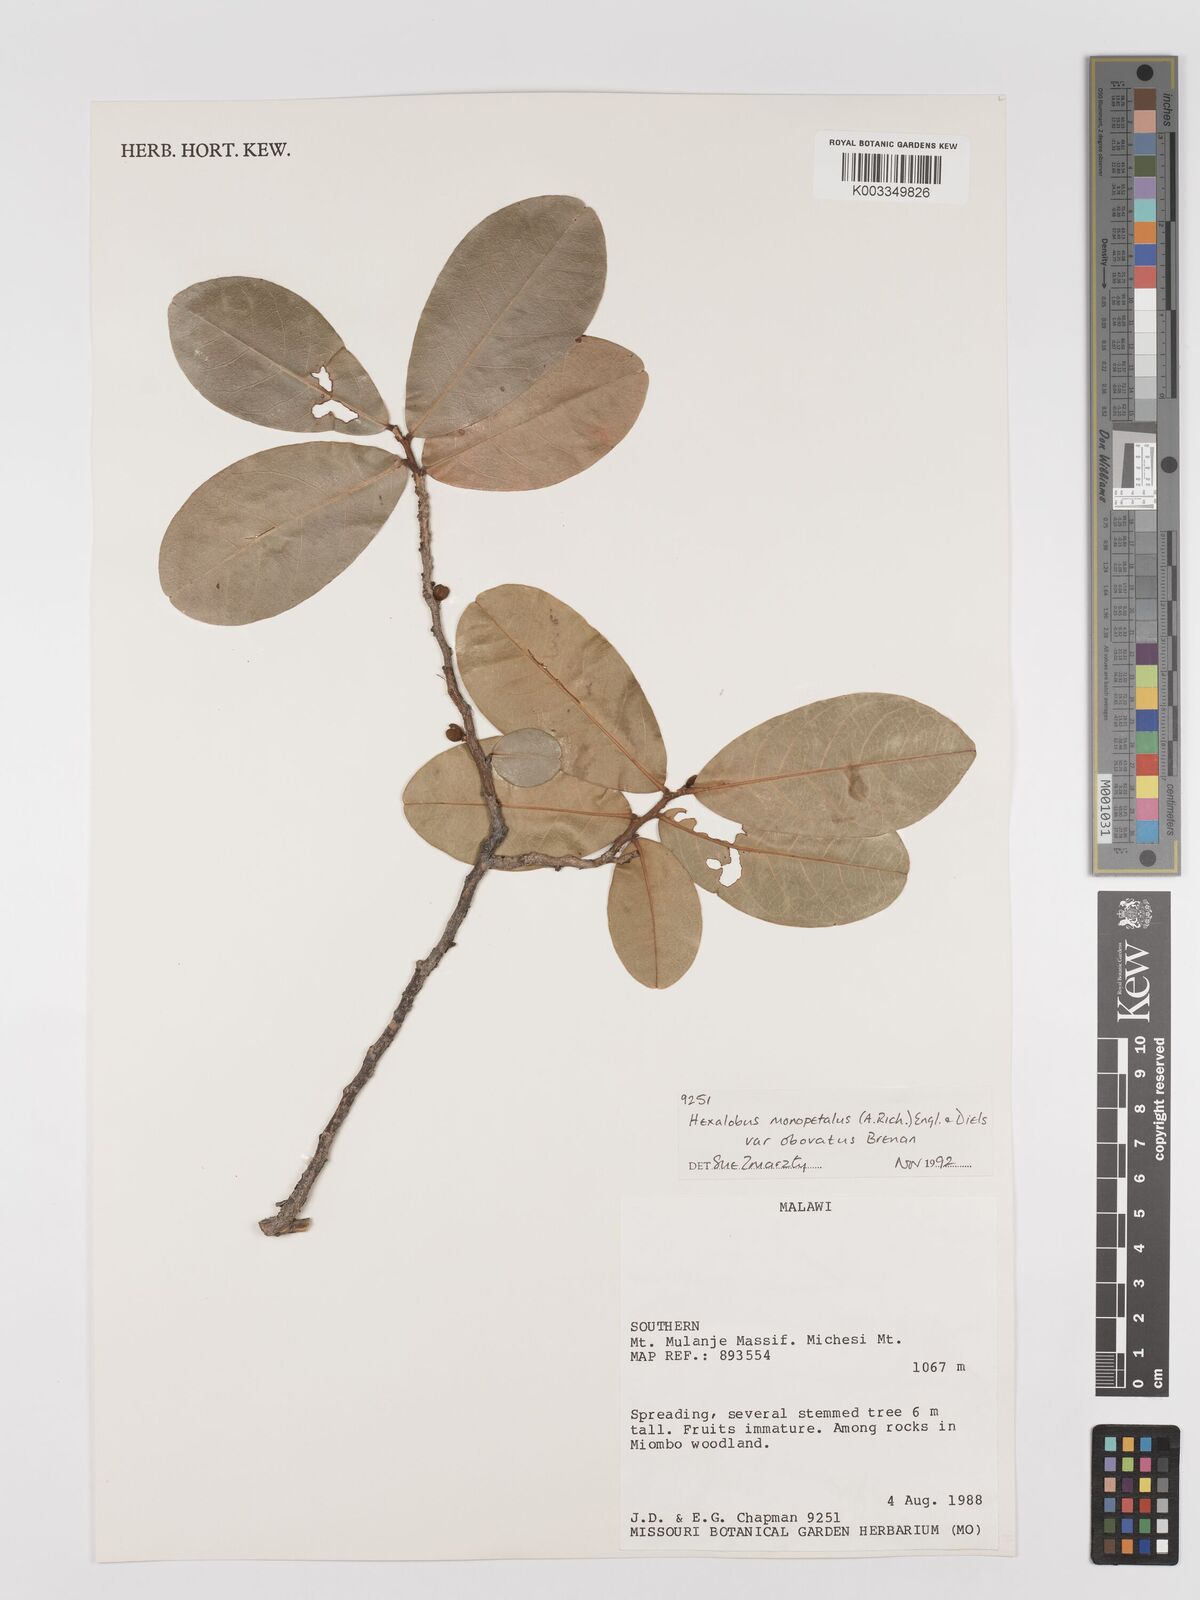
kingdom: Plantae
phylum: Tracheophyta
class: Magnoliopsida
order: Magnoliales
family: Annonaceae
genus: Hexalobus
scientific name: Hexalobus monopetalus
